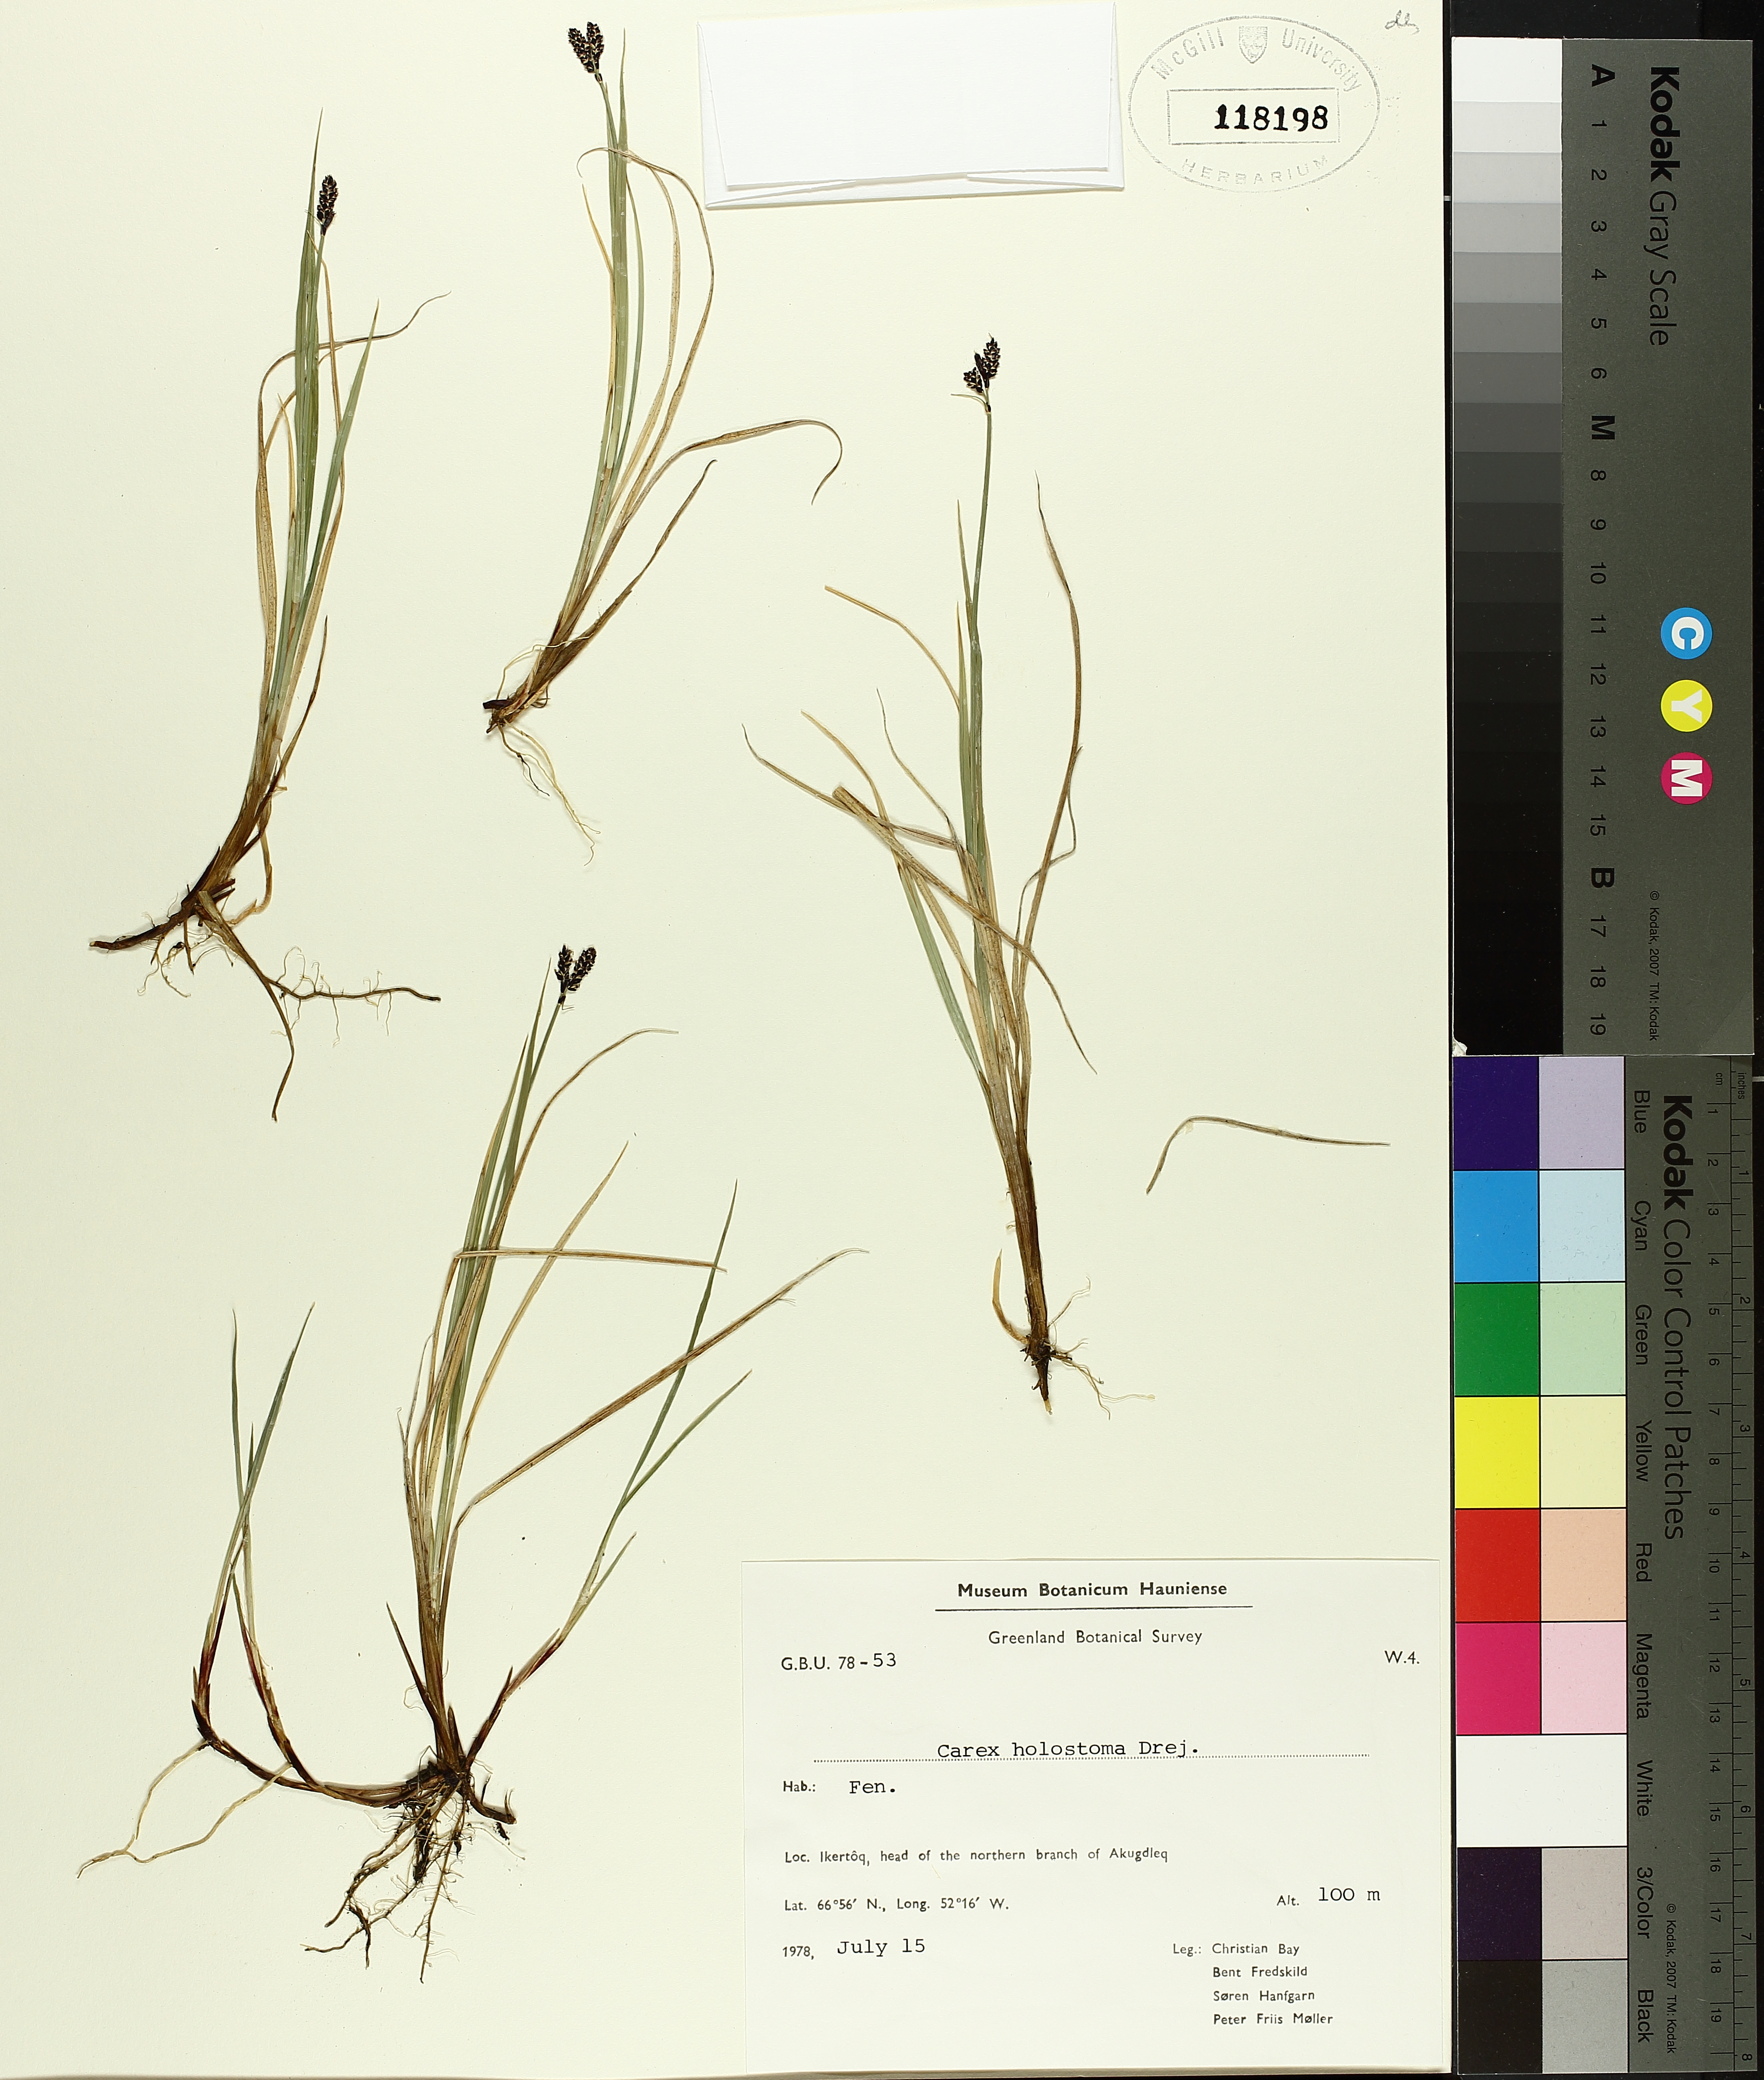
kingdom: Plantae
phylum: Tracheophyta
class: Liliopsida
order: Poales
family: Cyperaceae
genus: Carex
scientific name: Carex holostoma
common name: Arctic marsh sedge
